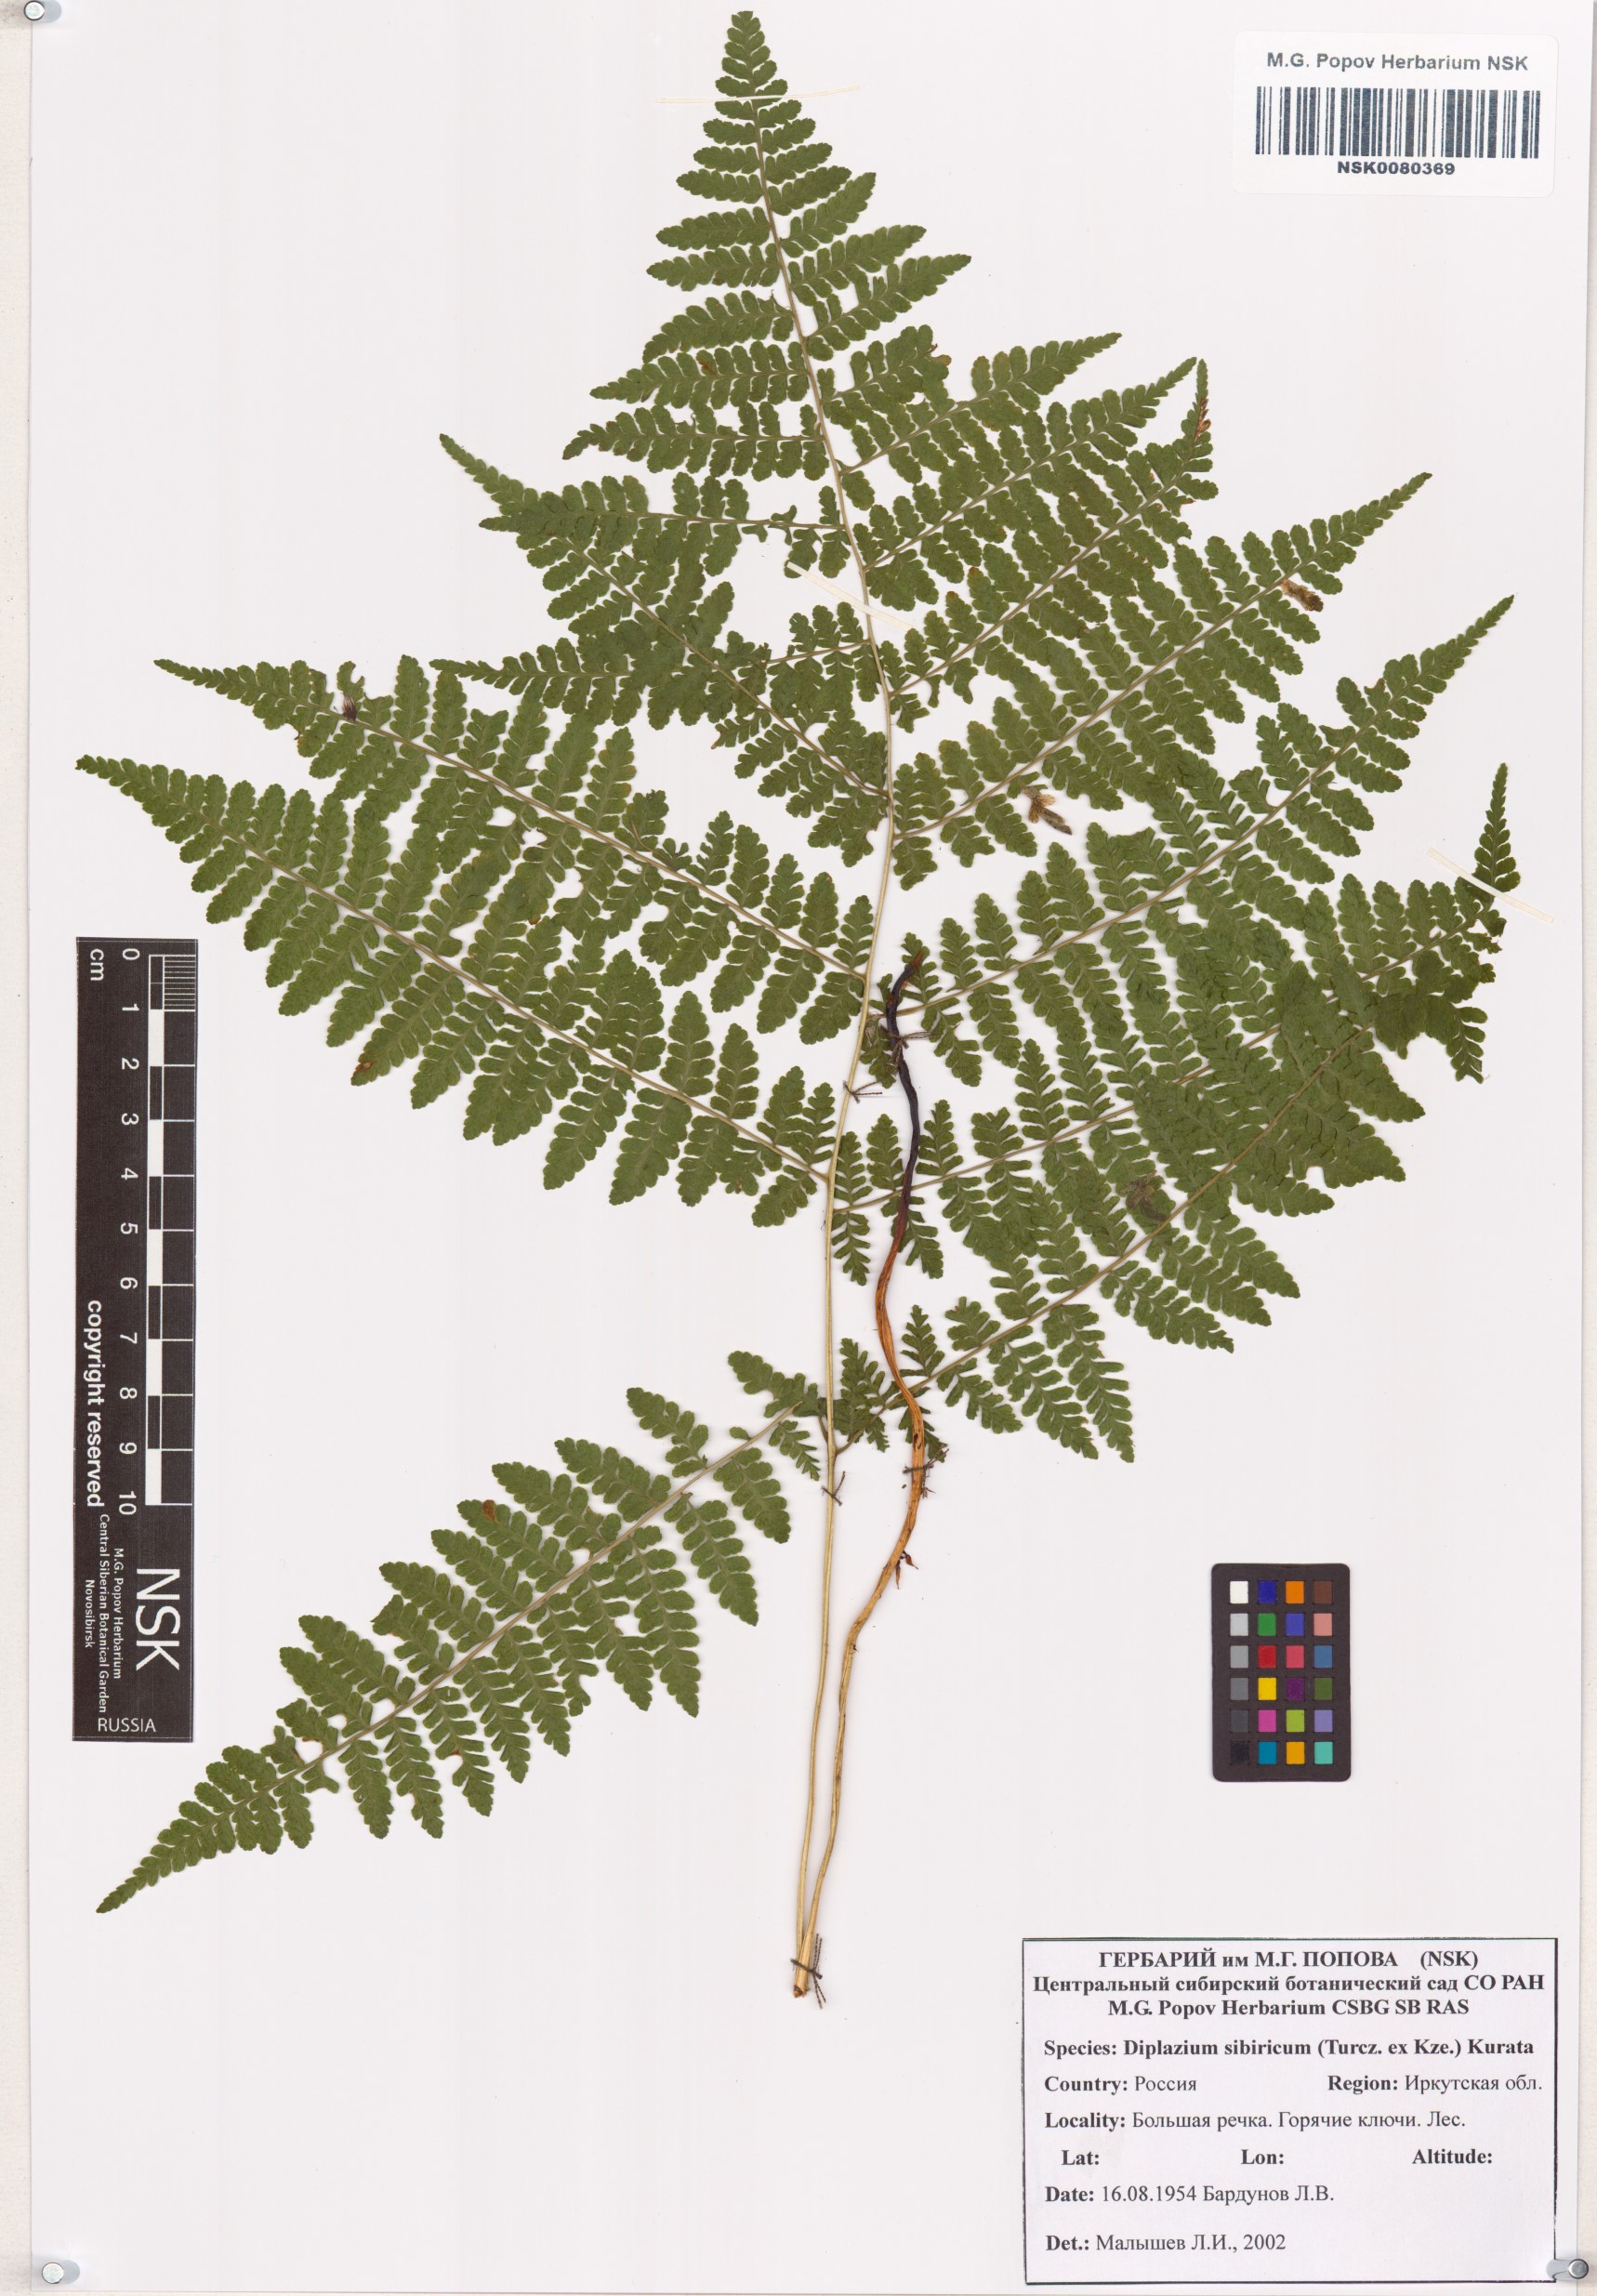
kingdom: Plantae
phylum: Tracheophyta
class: Polypodiopsida
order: Polypodiales
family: Athyriaceae
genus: Diplazium
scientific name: Diplazium sibiricum
